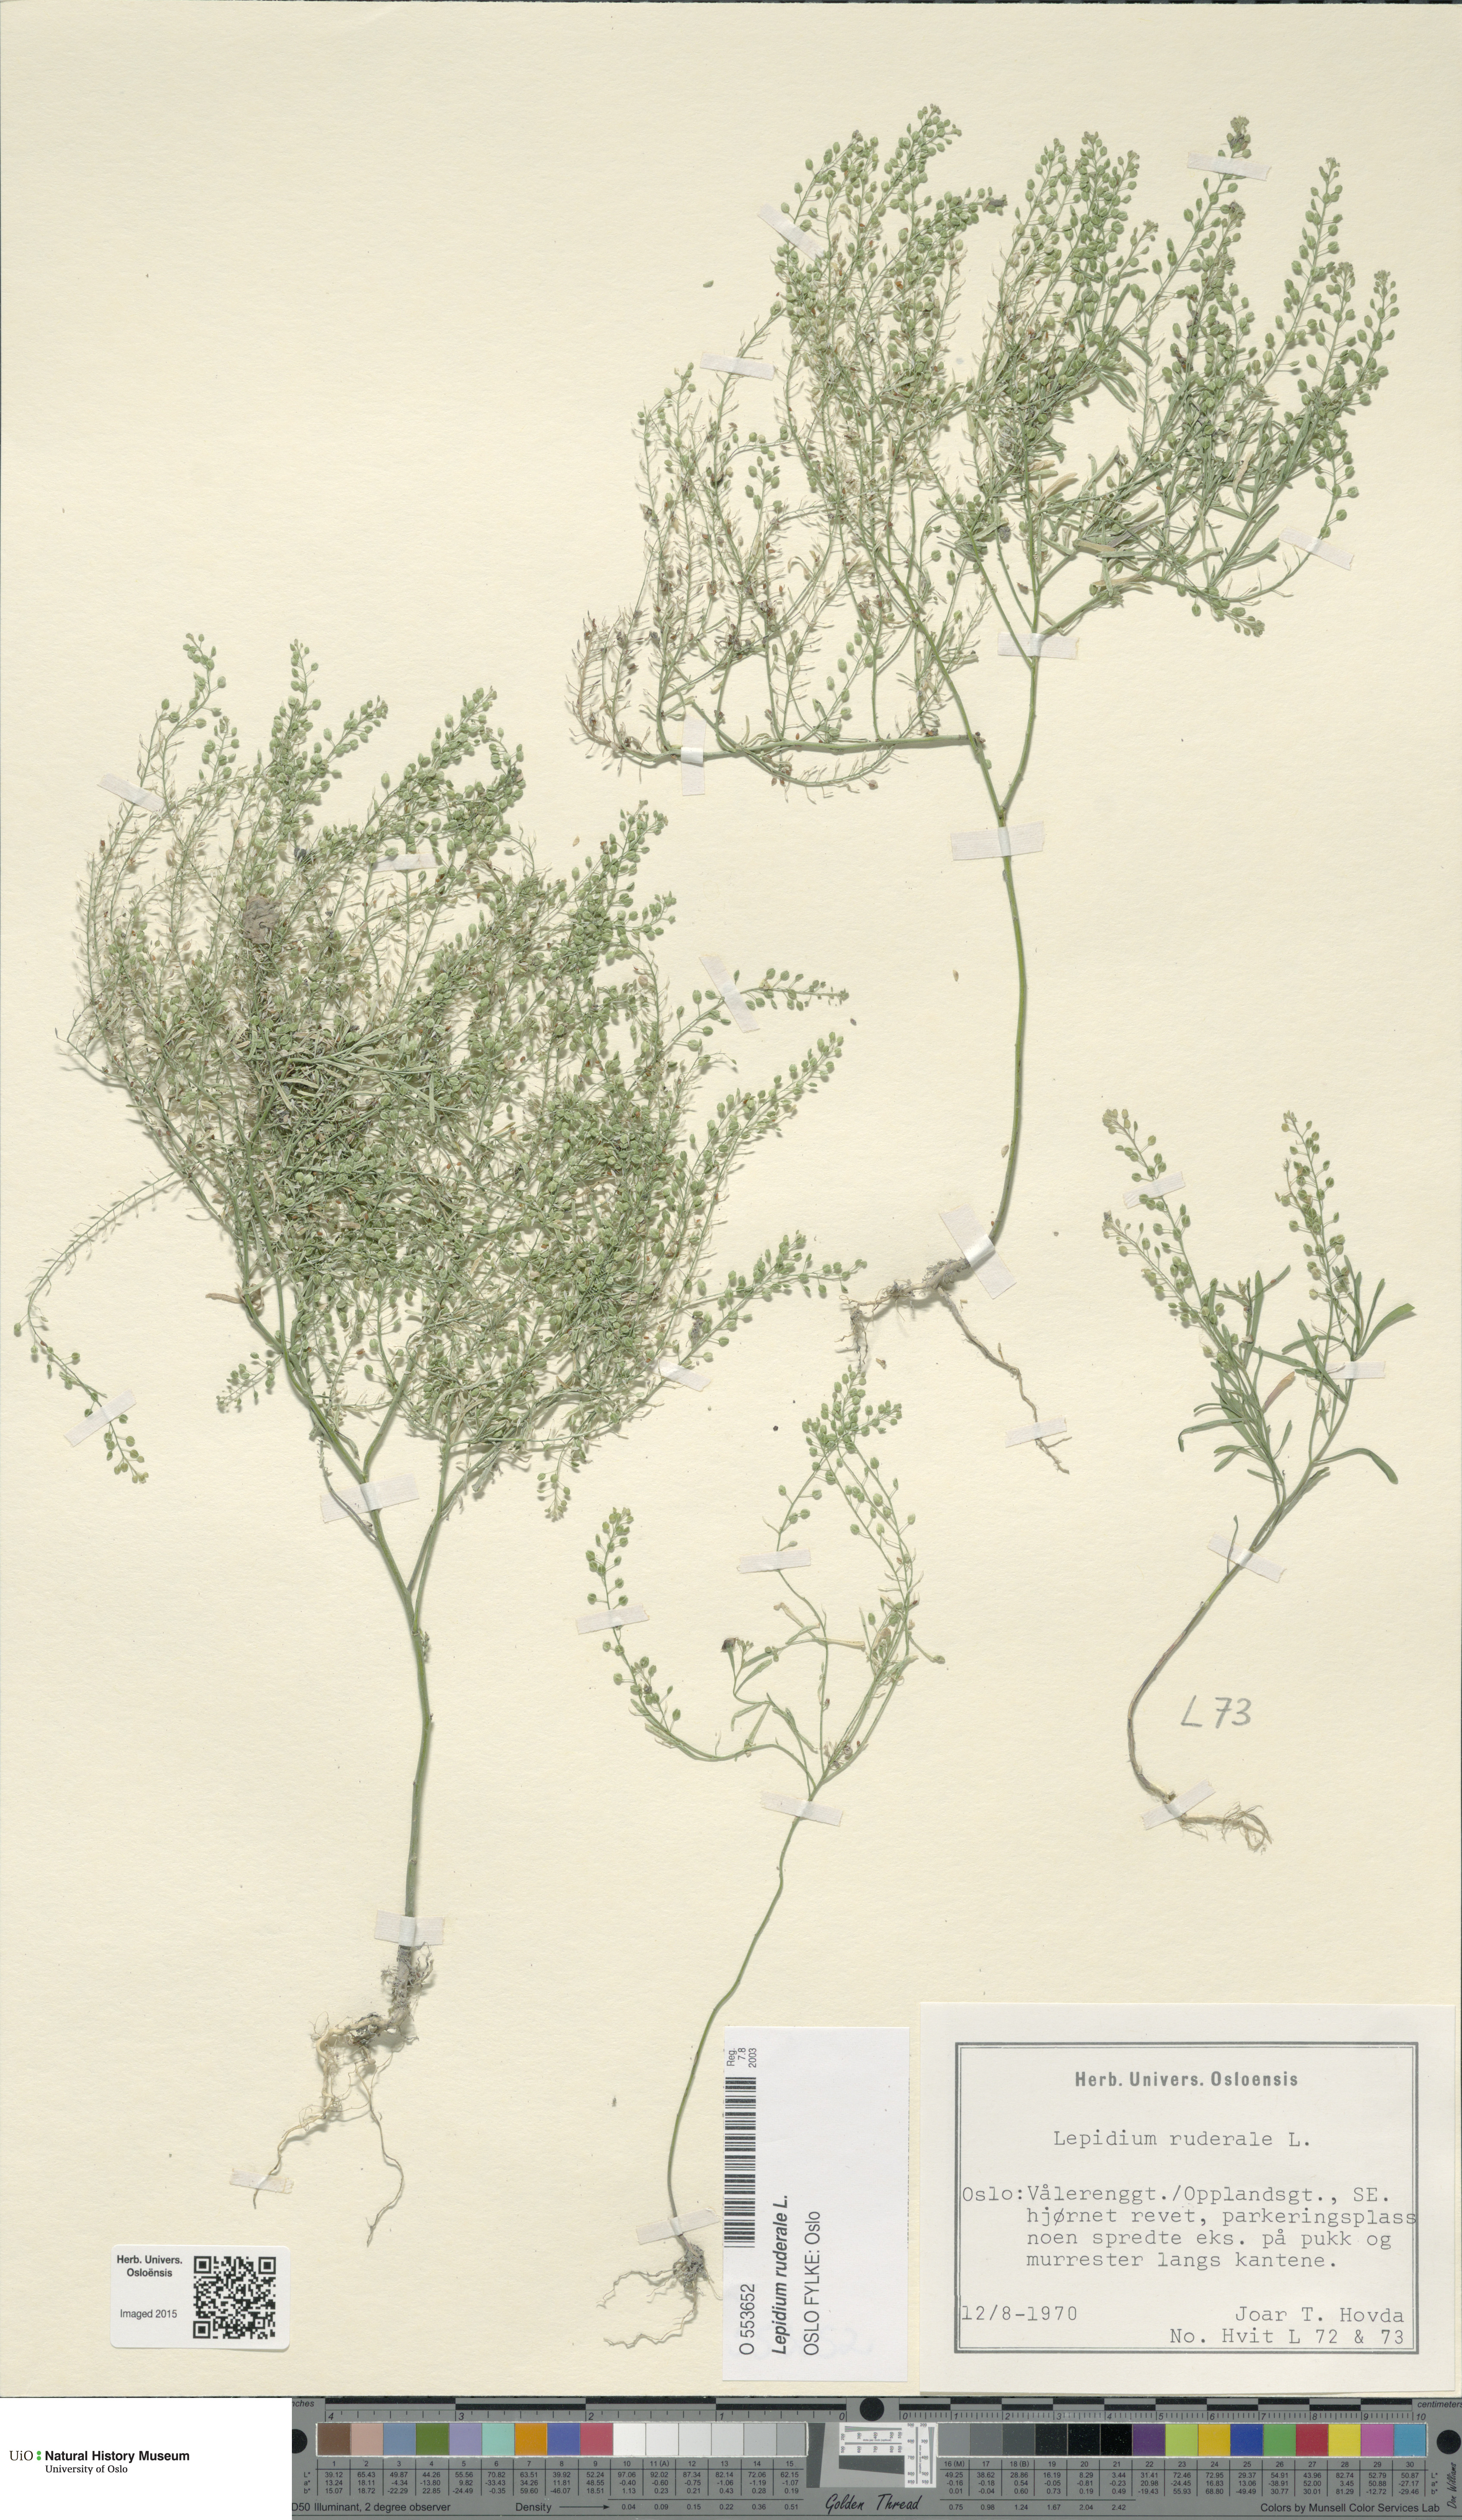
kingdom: Plantae
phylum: Tracheophyta
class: Magnoliopsida
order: Brassicales
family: Brassicaceae
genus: Lepidium
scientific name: Lepidium ruderale
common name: Narrow-leaved pepperwort
